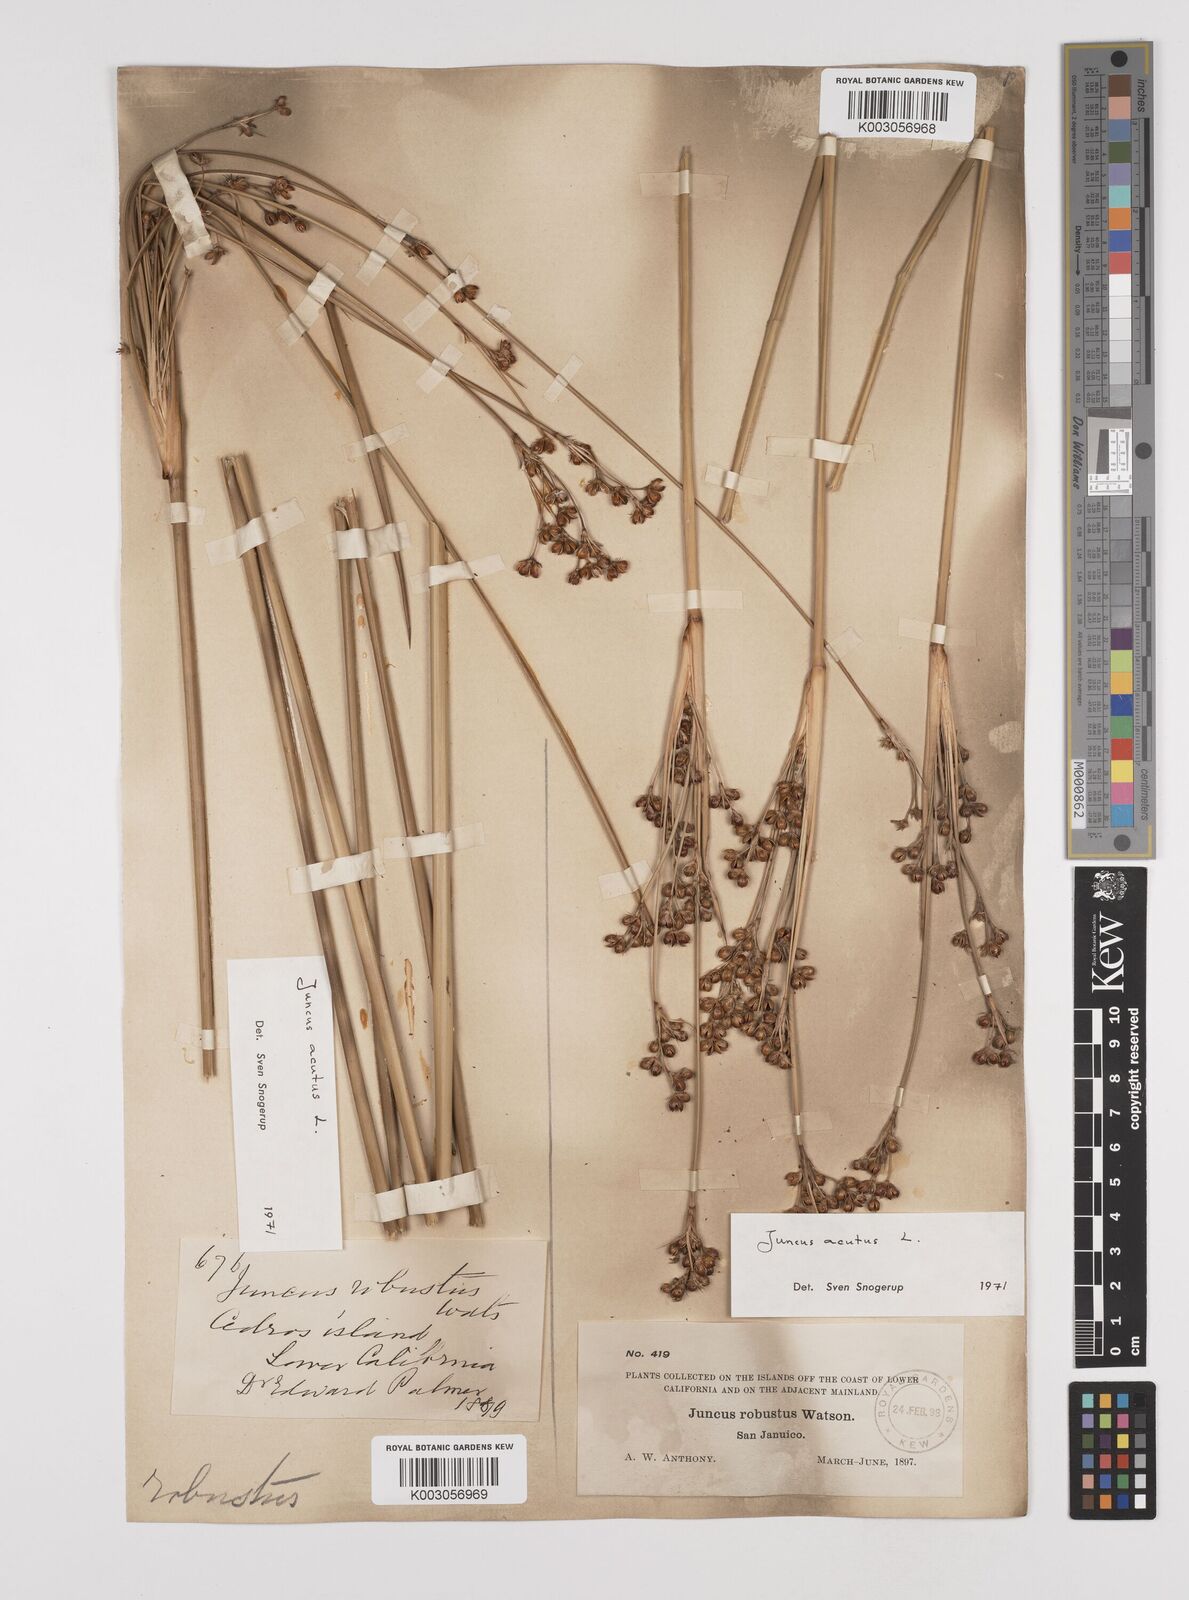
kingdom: Plantae
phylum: Tracheophyta
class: Liliopsida
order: Poales
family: Juncaceae
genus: Juncus
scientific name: Juncus acutus
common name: Sharp rush
